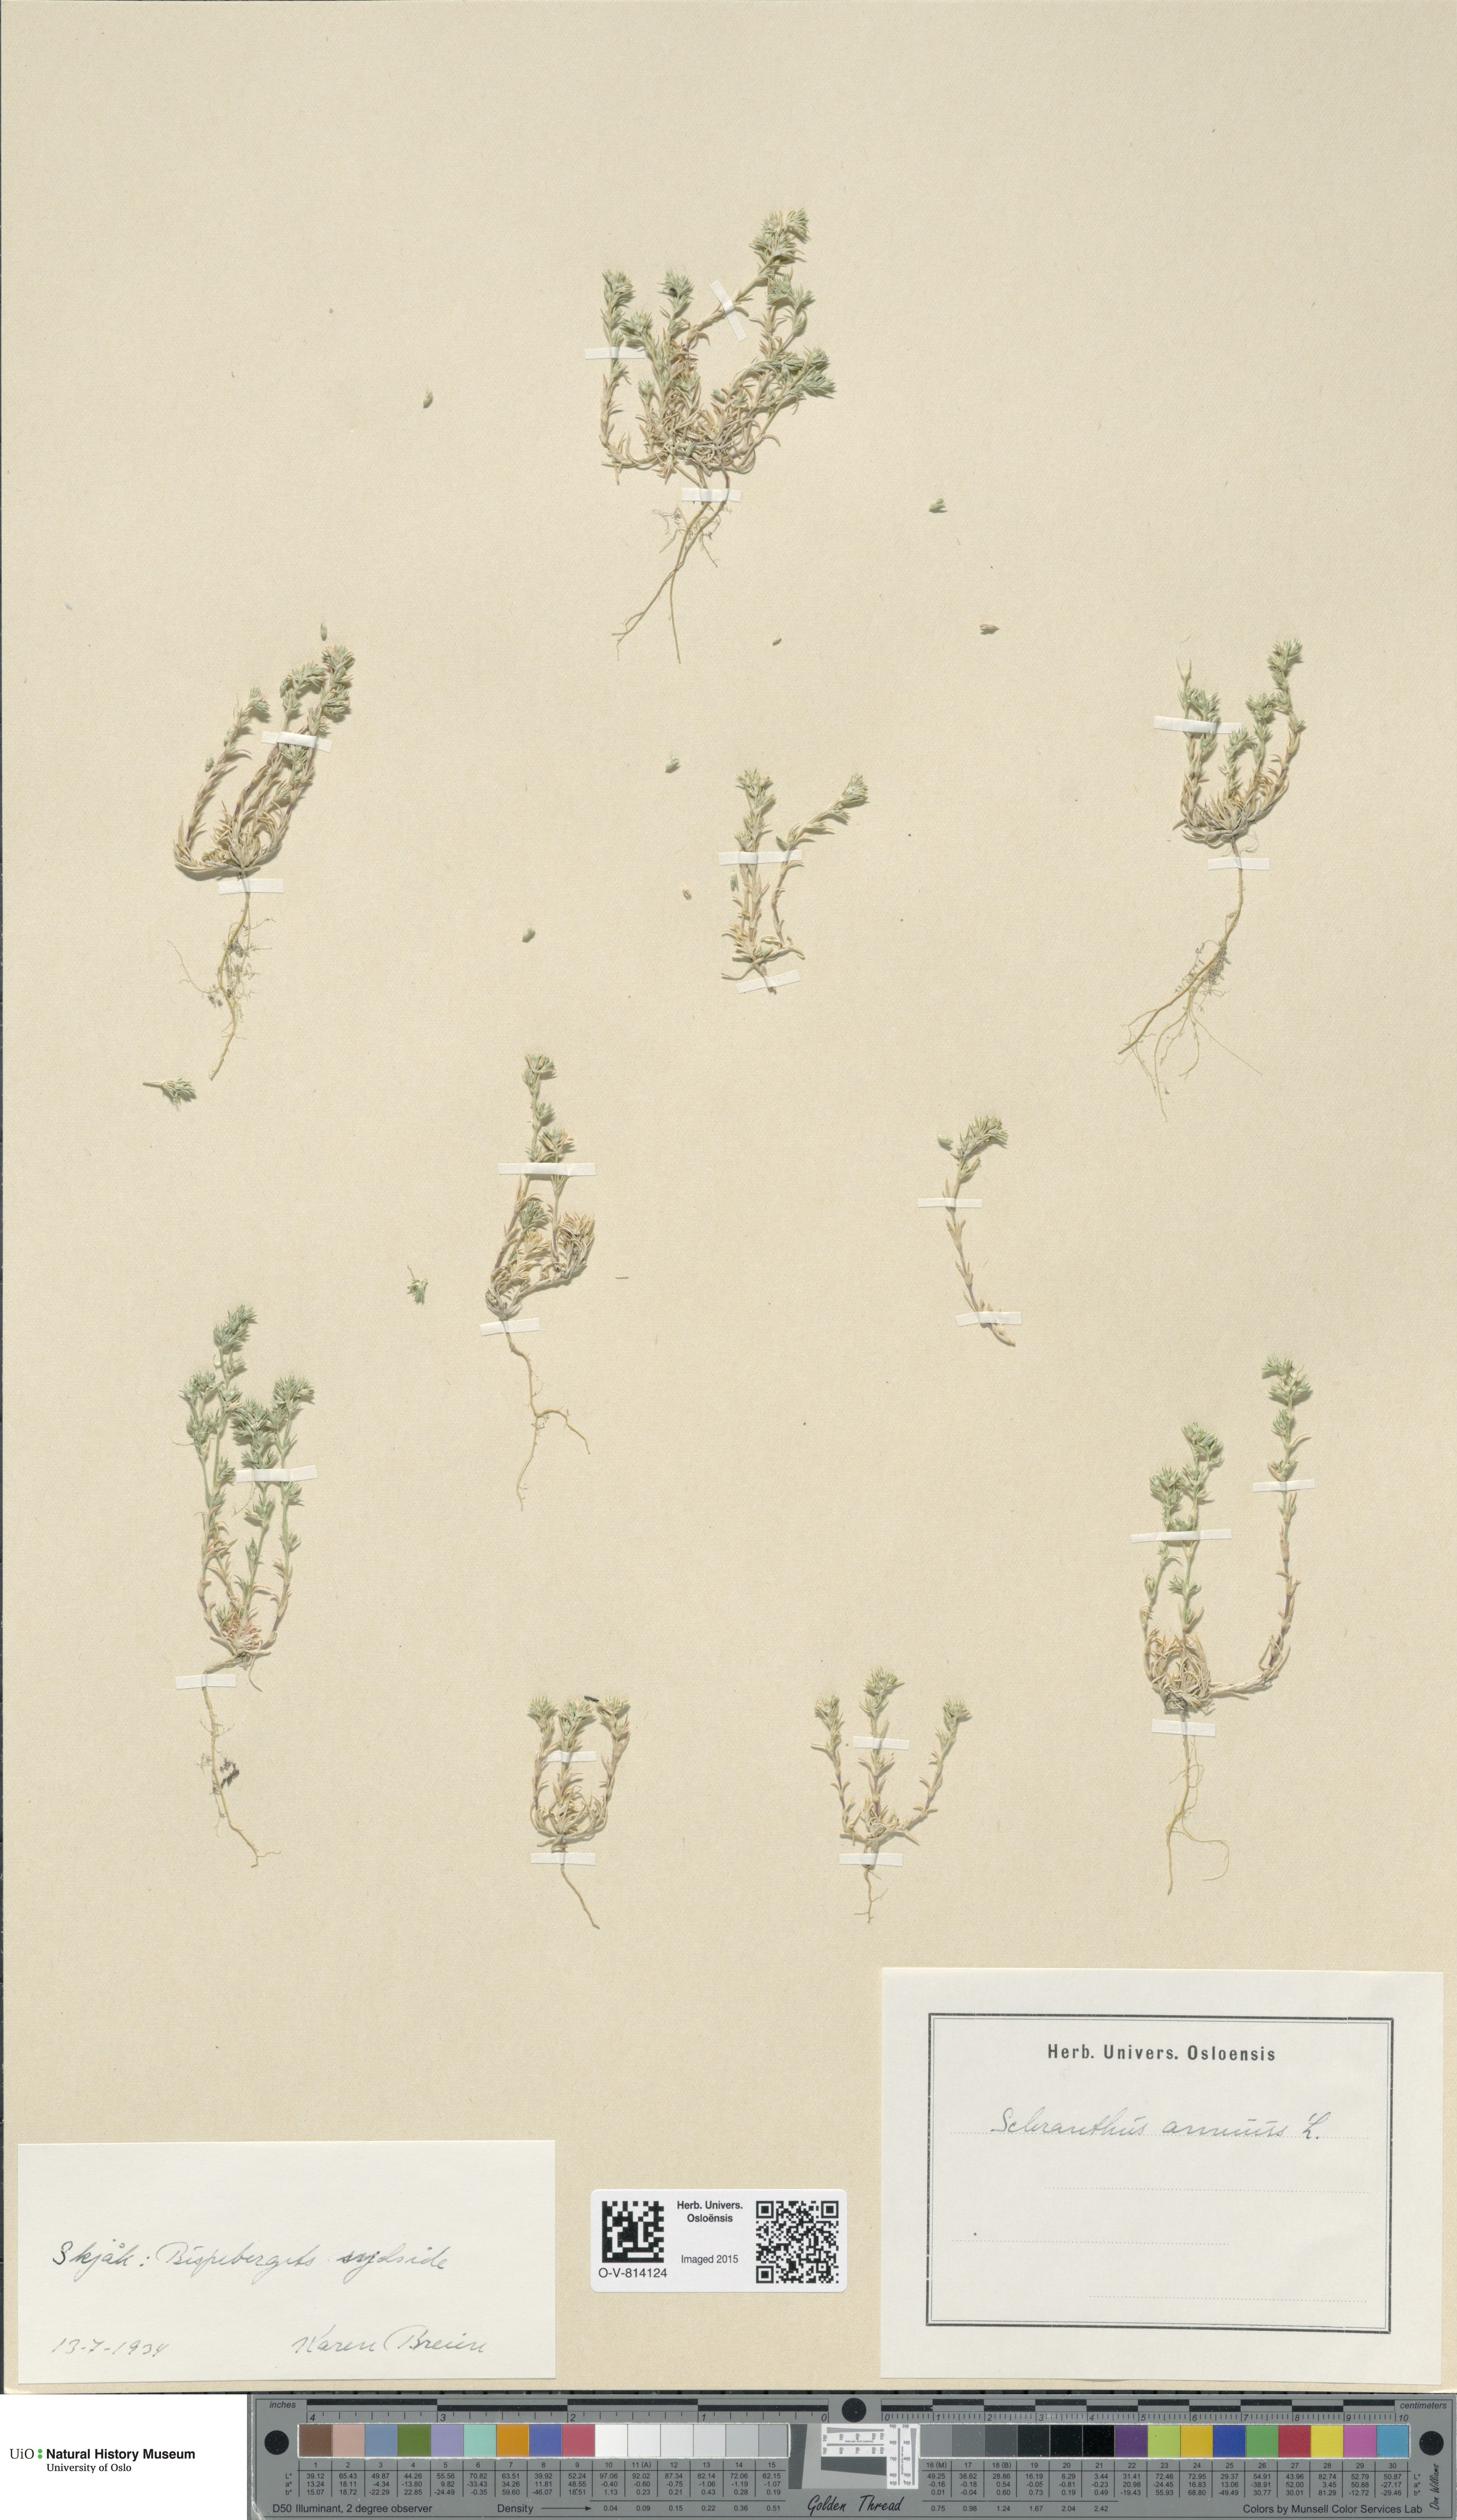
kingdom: Plantae
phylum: Tracheophyta
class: Magnoliopsida
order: Caryophyllales
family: Caryophyllaceae
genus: Scleranthus
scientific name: Scleranthus annuus
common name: Annual knawel
